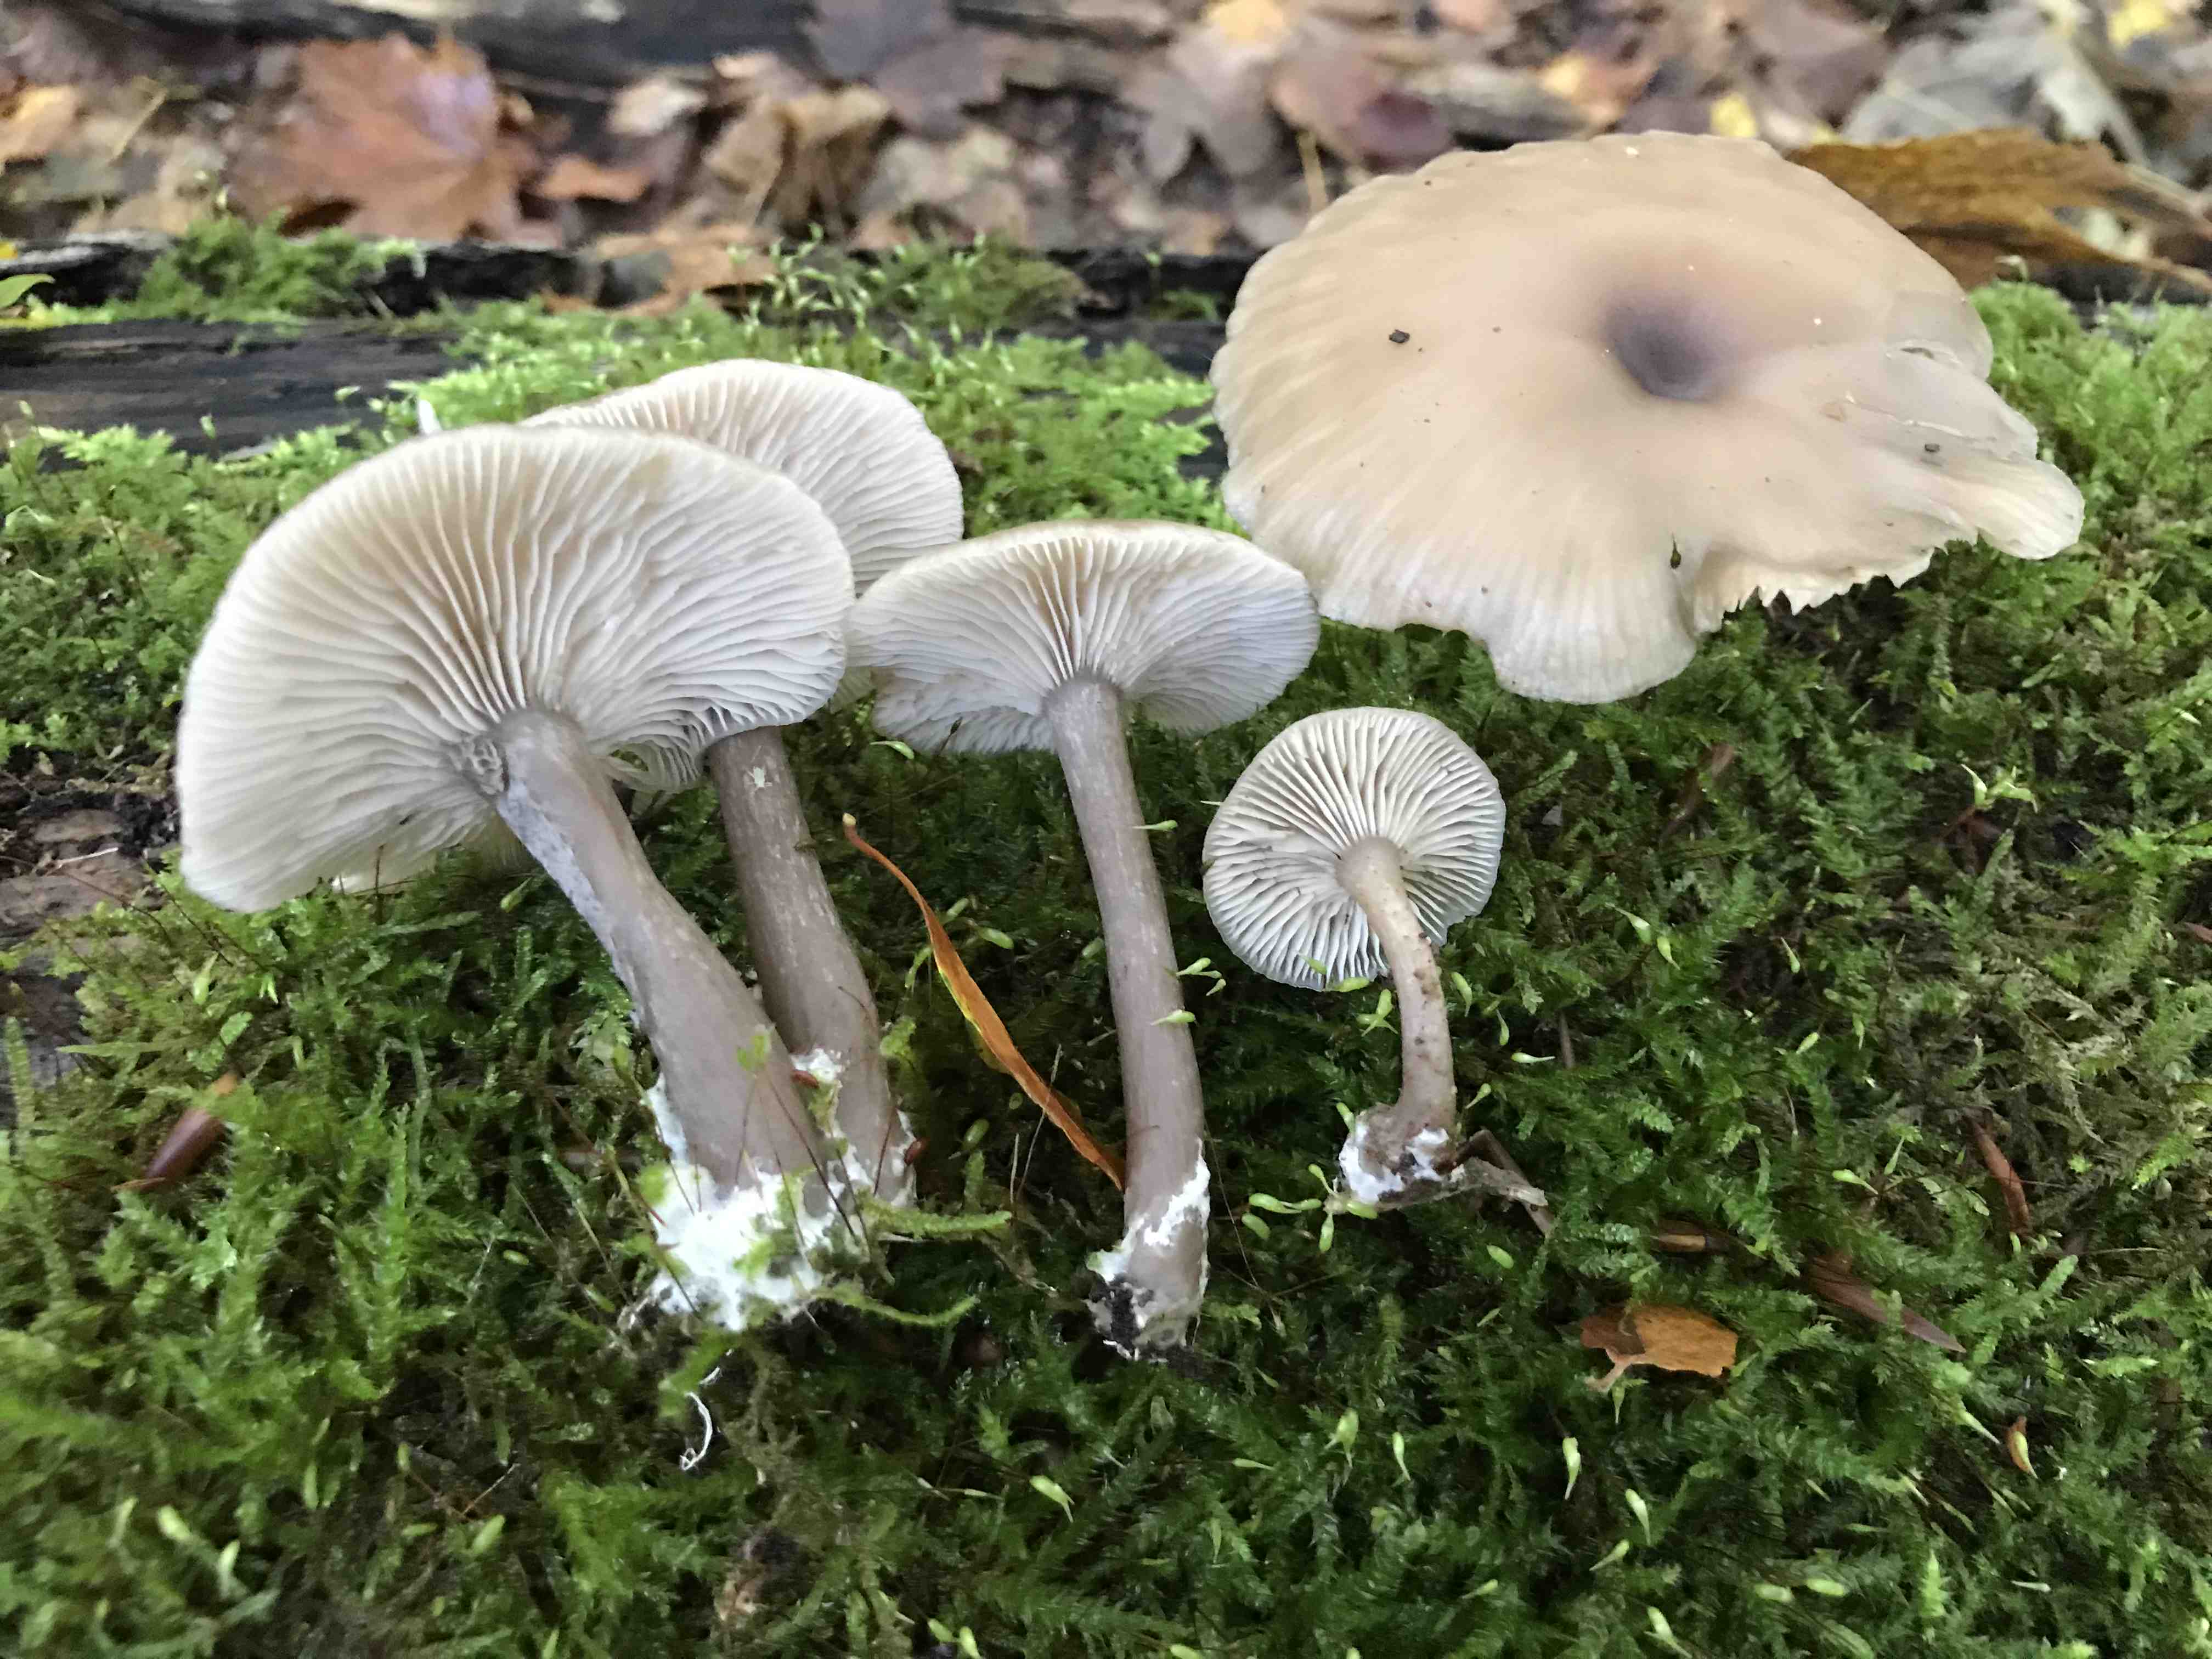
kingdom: Fungi
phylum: Basidiomycota
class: Agaricomycetes
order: Agaricales
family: Tricholomataceae
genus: Clitocybe
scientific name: Clitocybe
